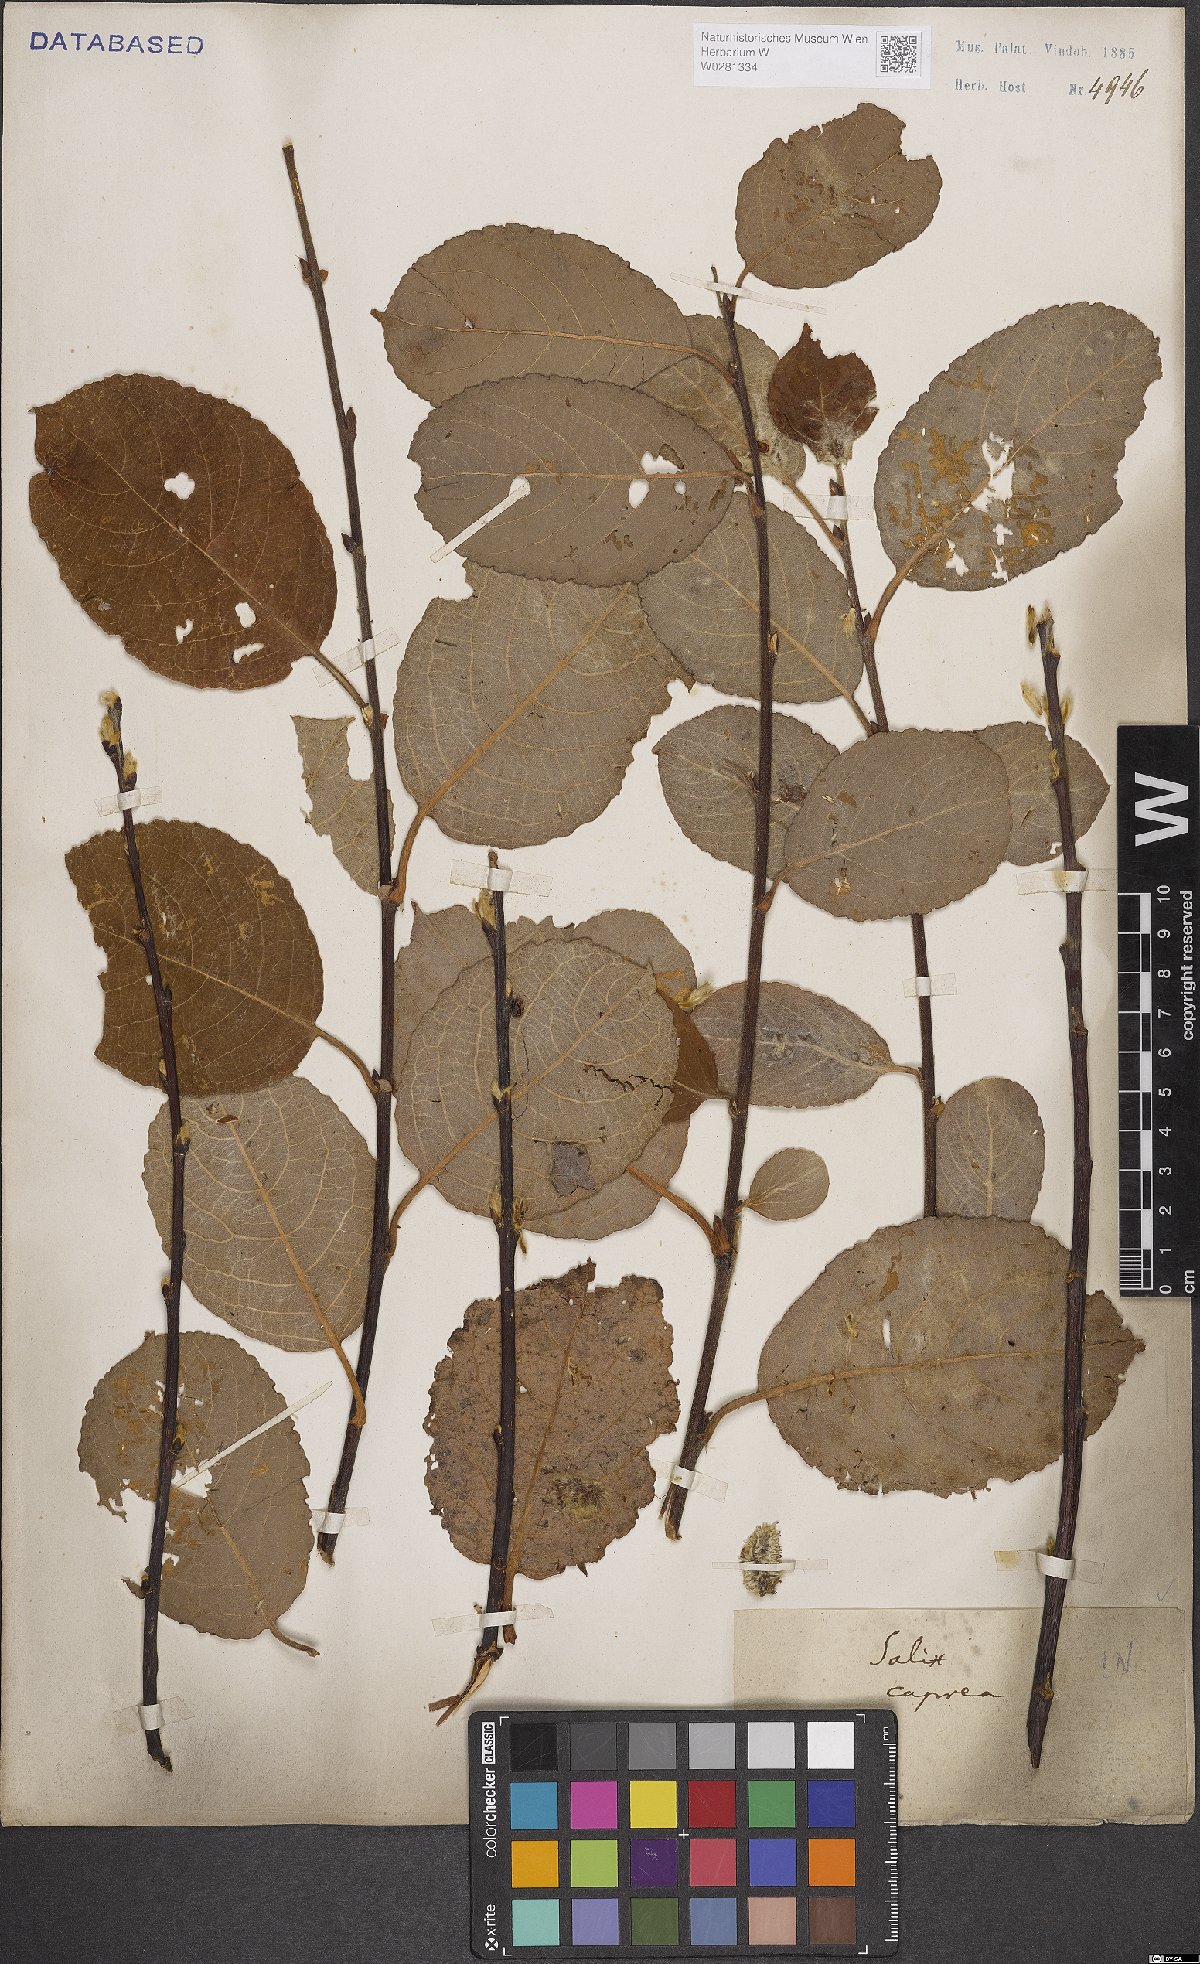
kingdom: Plantae
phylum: Tracheophyta
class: Magnoliopsida
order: Malpighiales
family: Salicaceae
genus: Salix
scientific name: Salix caprea
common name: Goat willow
